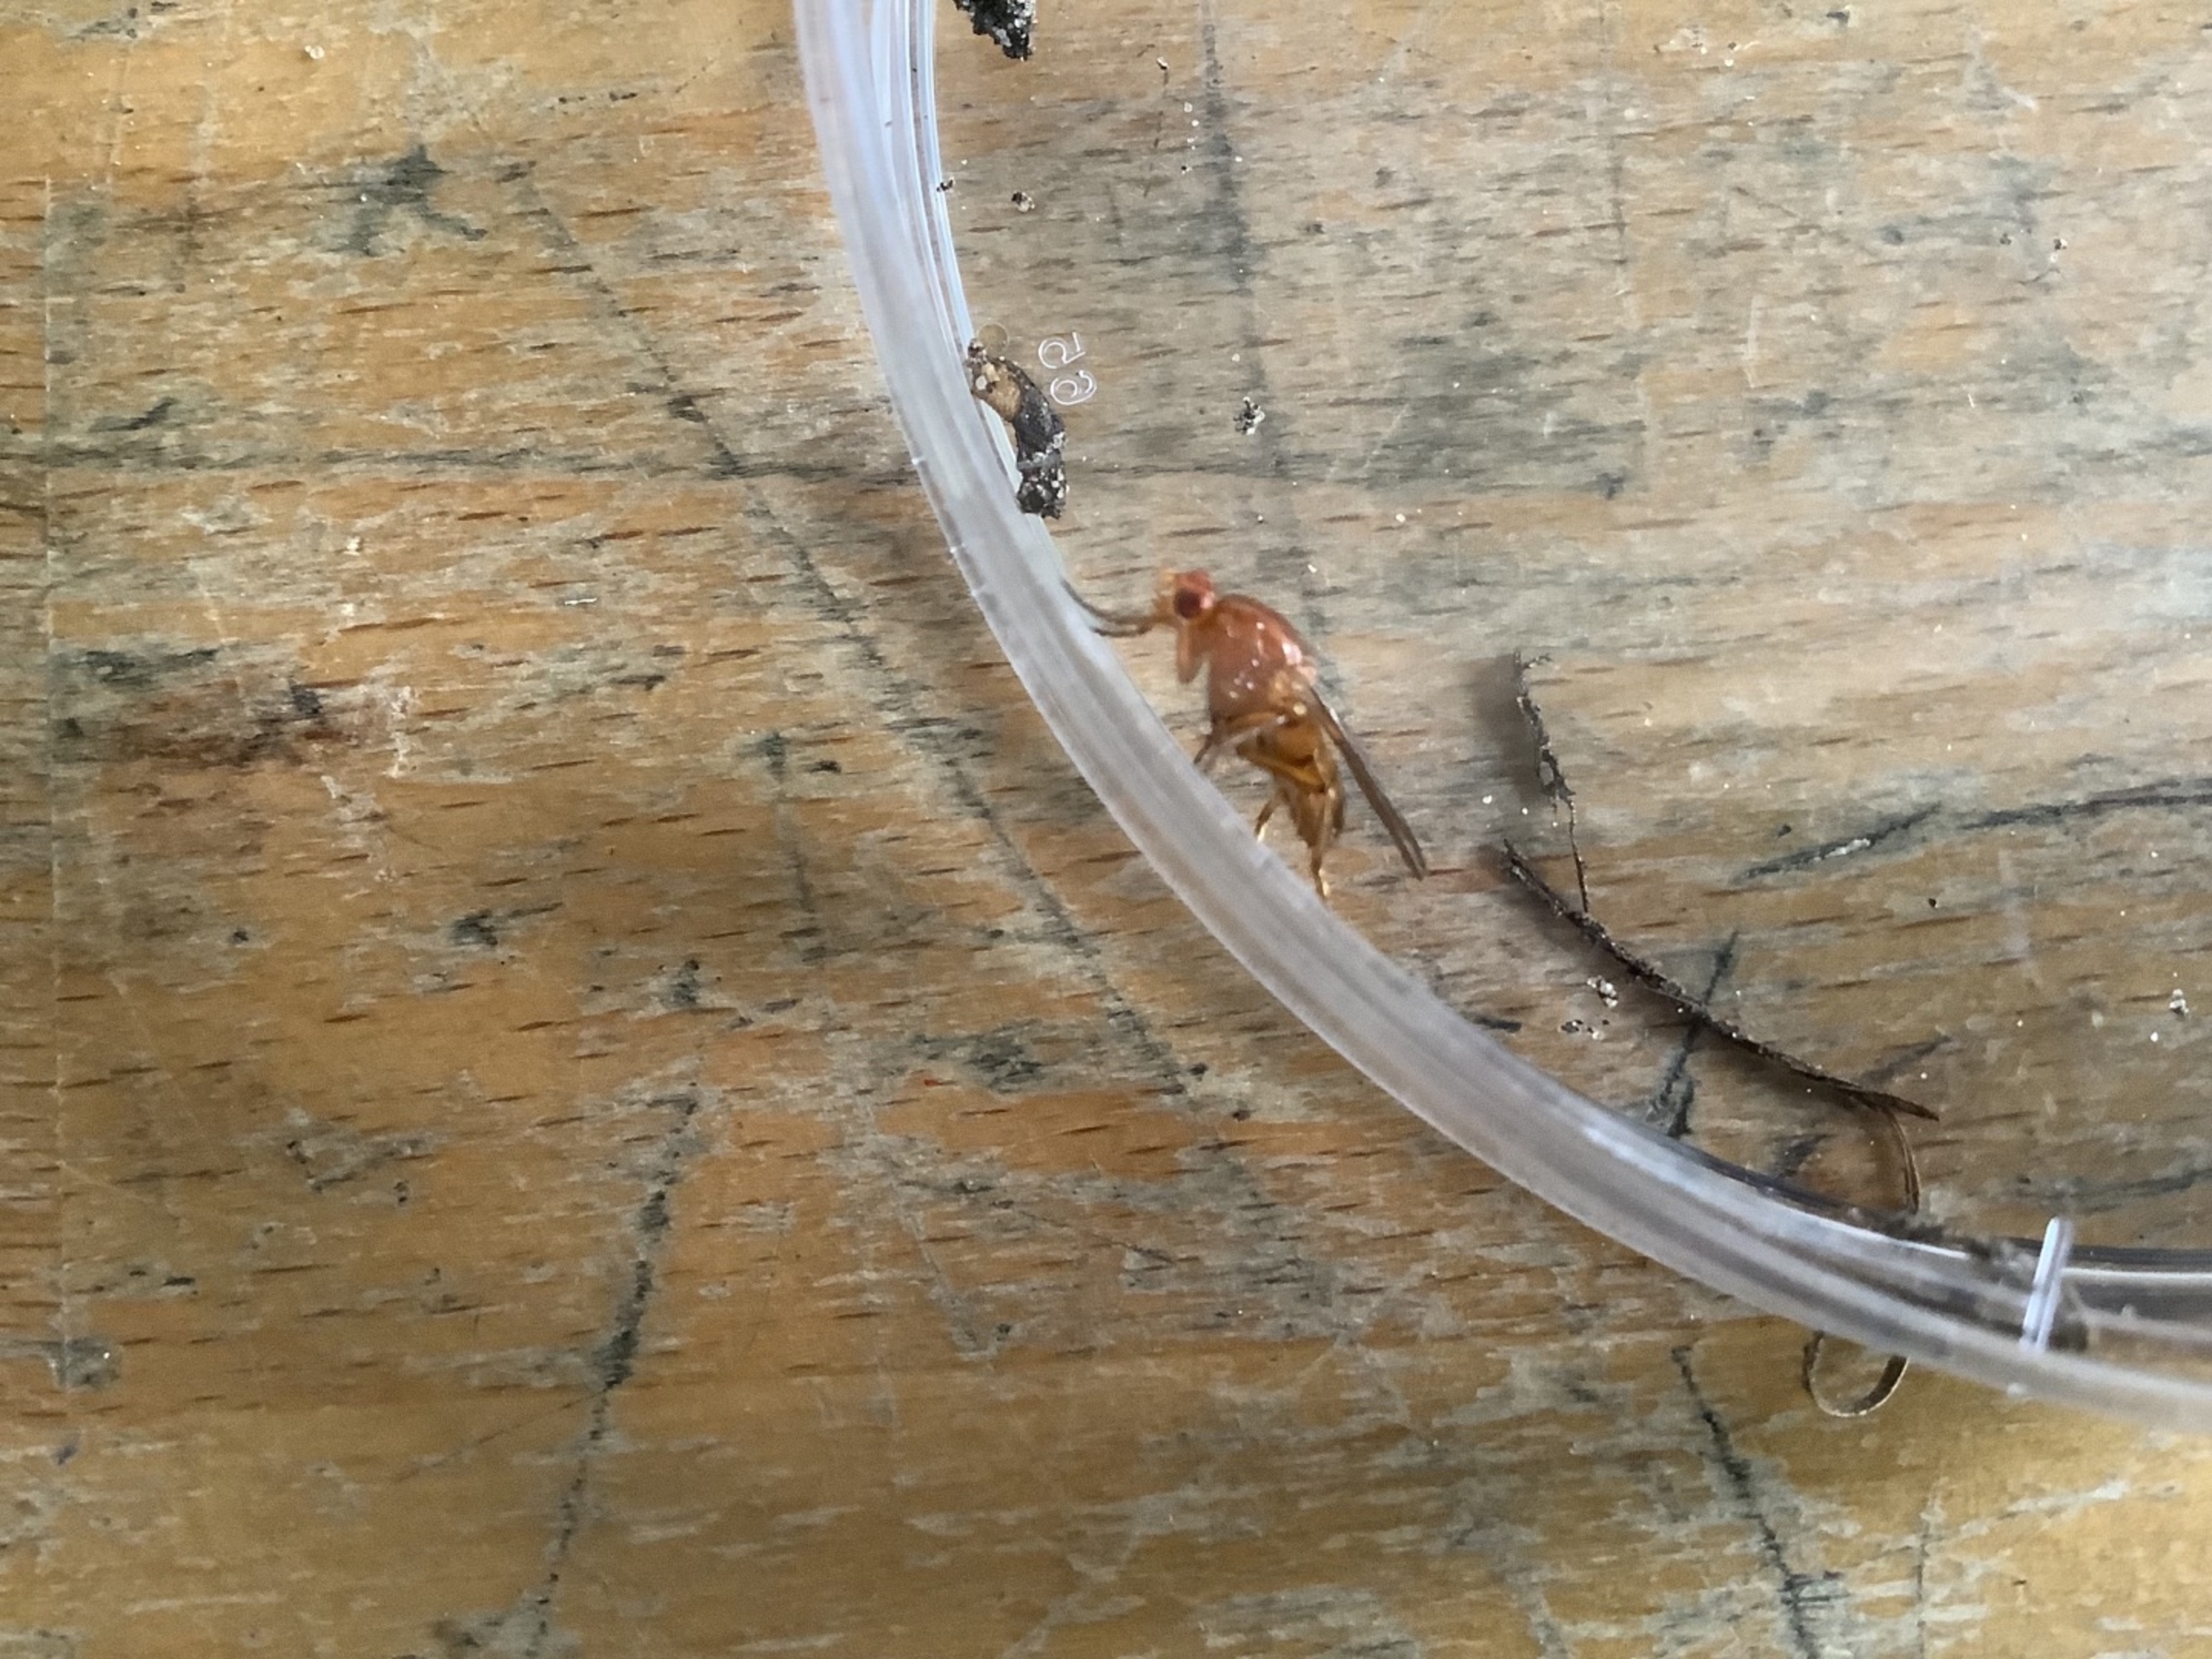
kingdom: Animalia
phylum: Arthropoda
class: Insecta
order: Diptera
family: Dryomyzidae
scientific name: Dryomyzidae
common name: Buskfluer
